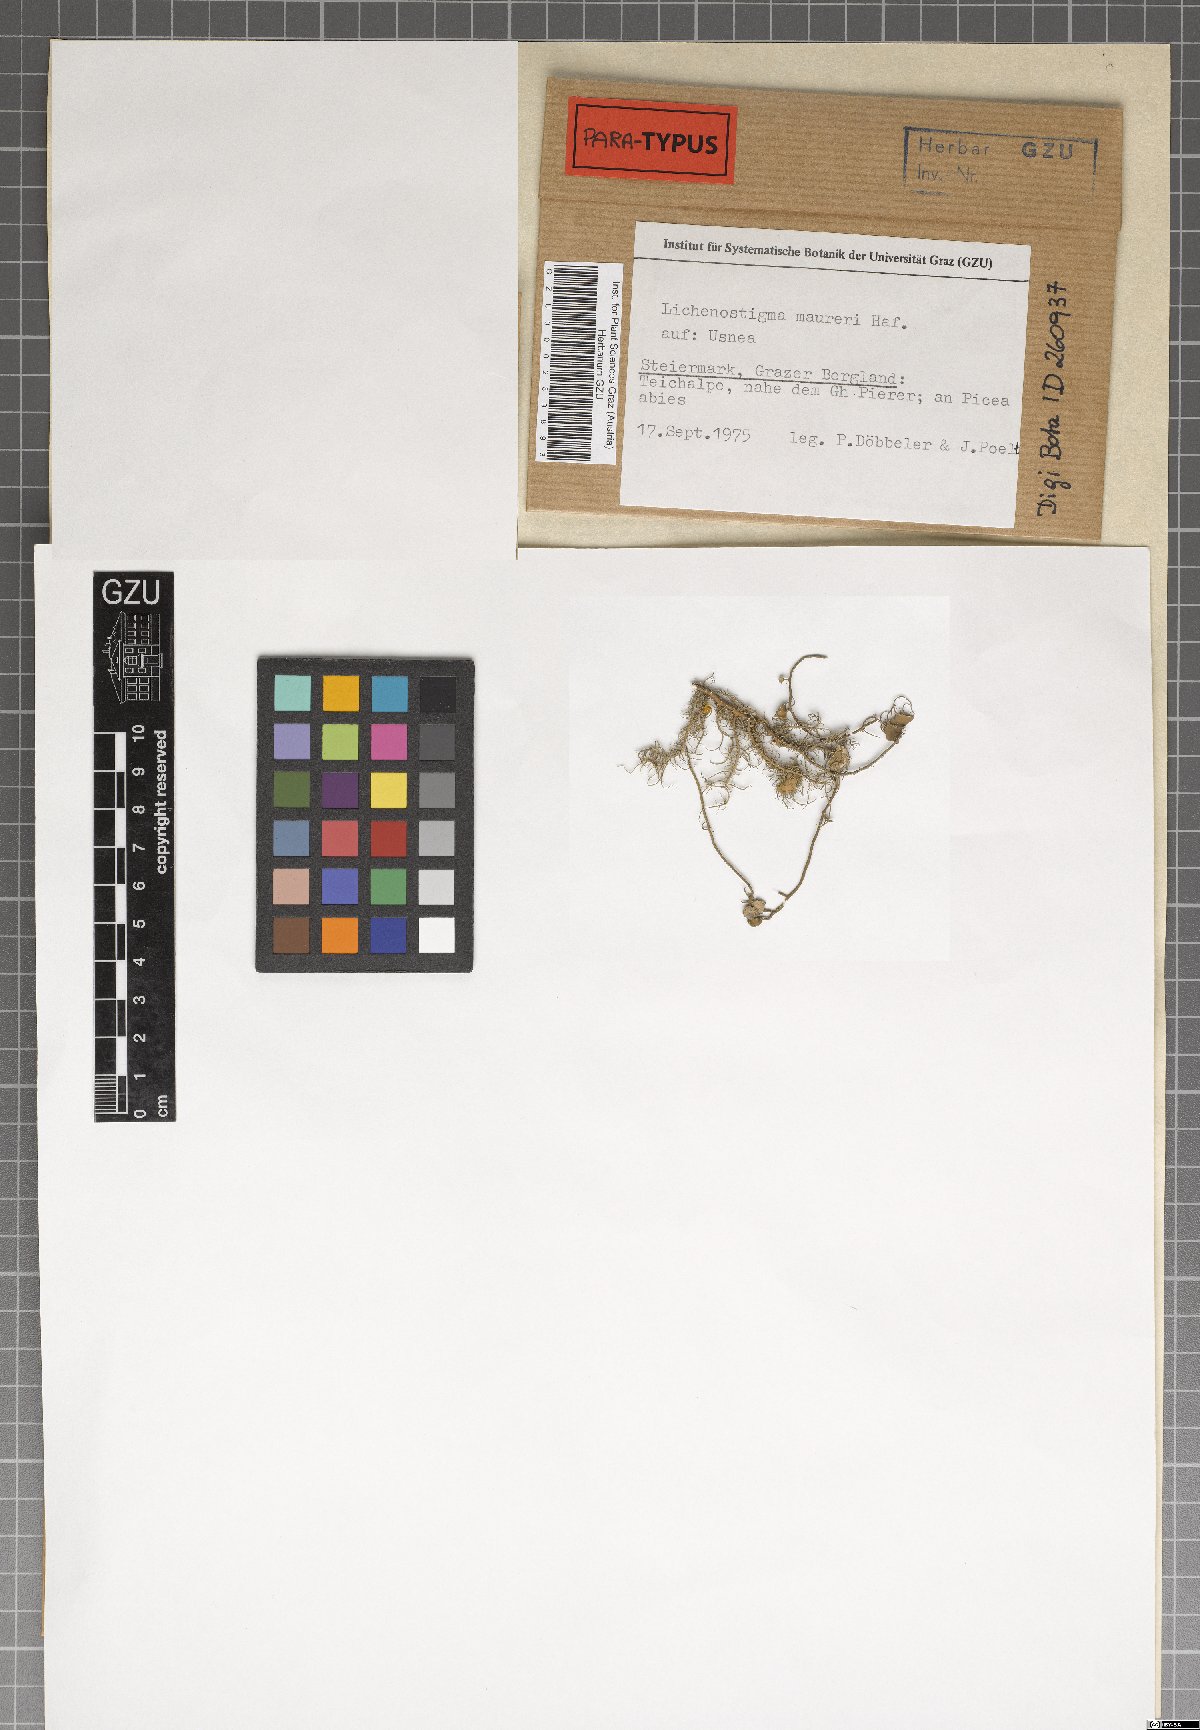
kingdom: Fungi
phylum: Ascomycota
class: Arthoniomycetes
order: Lichenostigmatales
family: Phaeococcomycetaceae
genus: Lichenostigma
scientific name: Lichenostigma maureri
